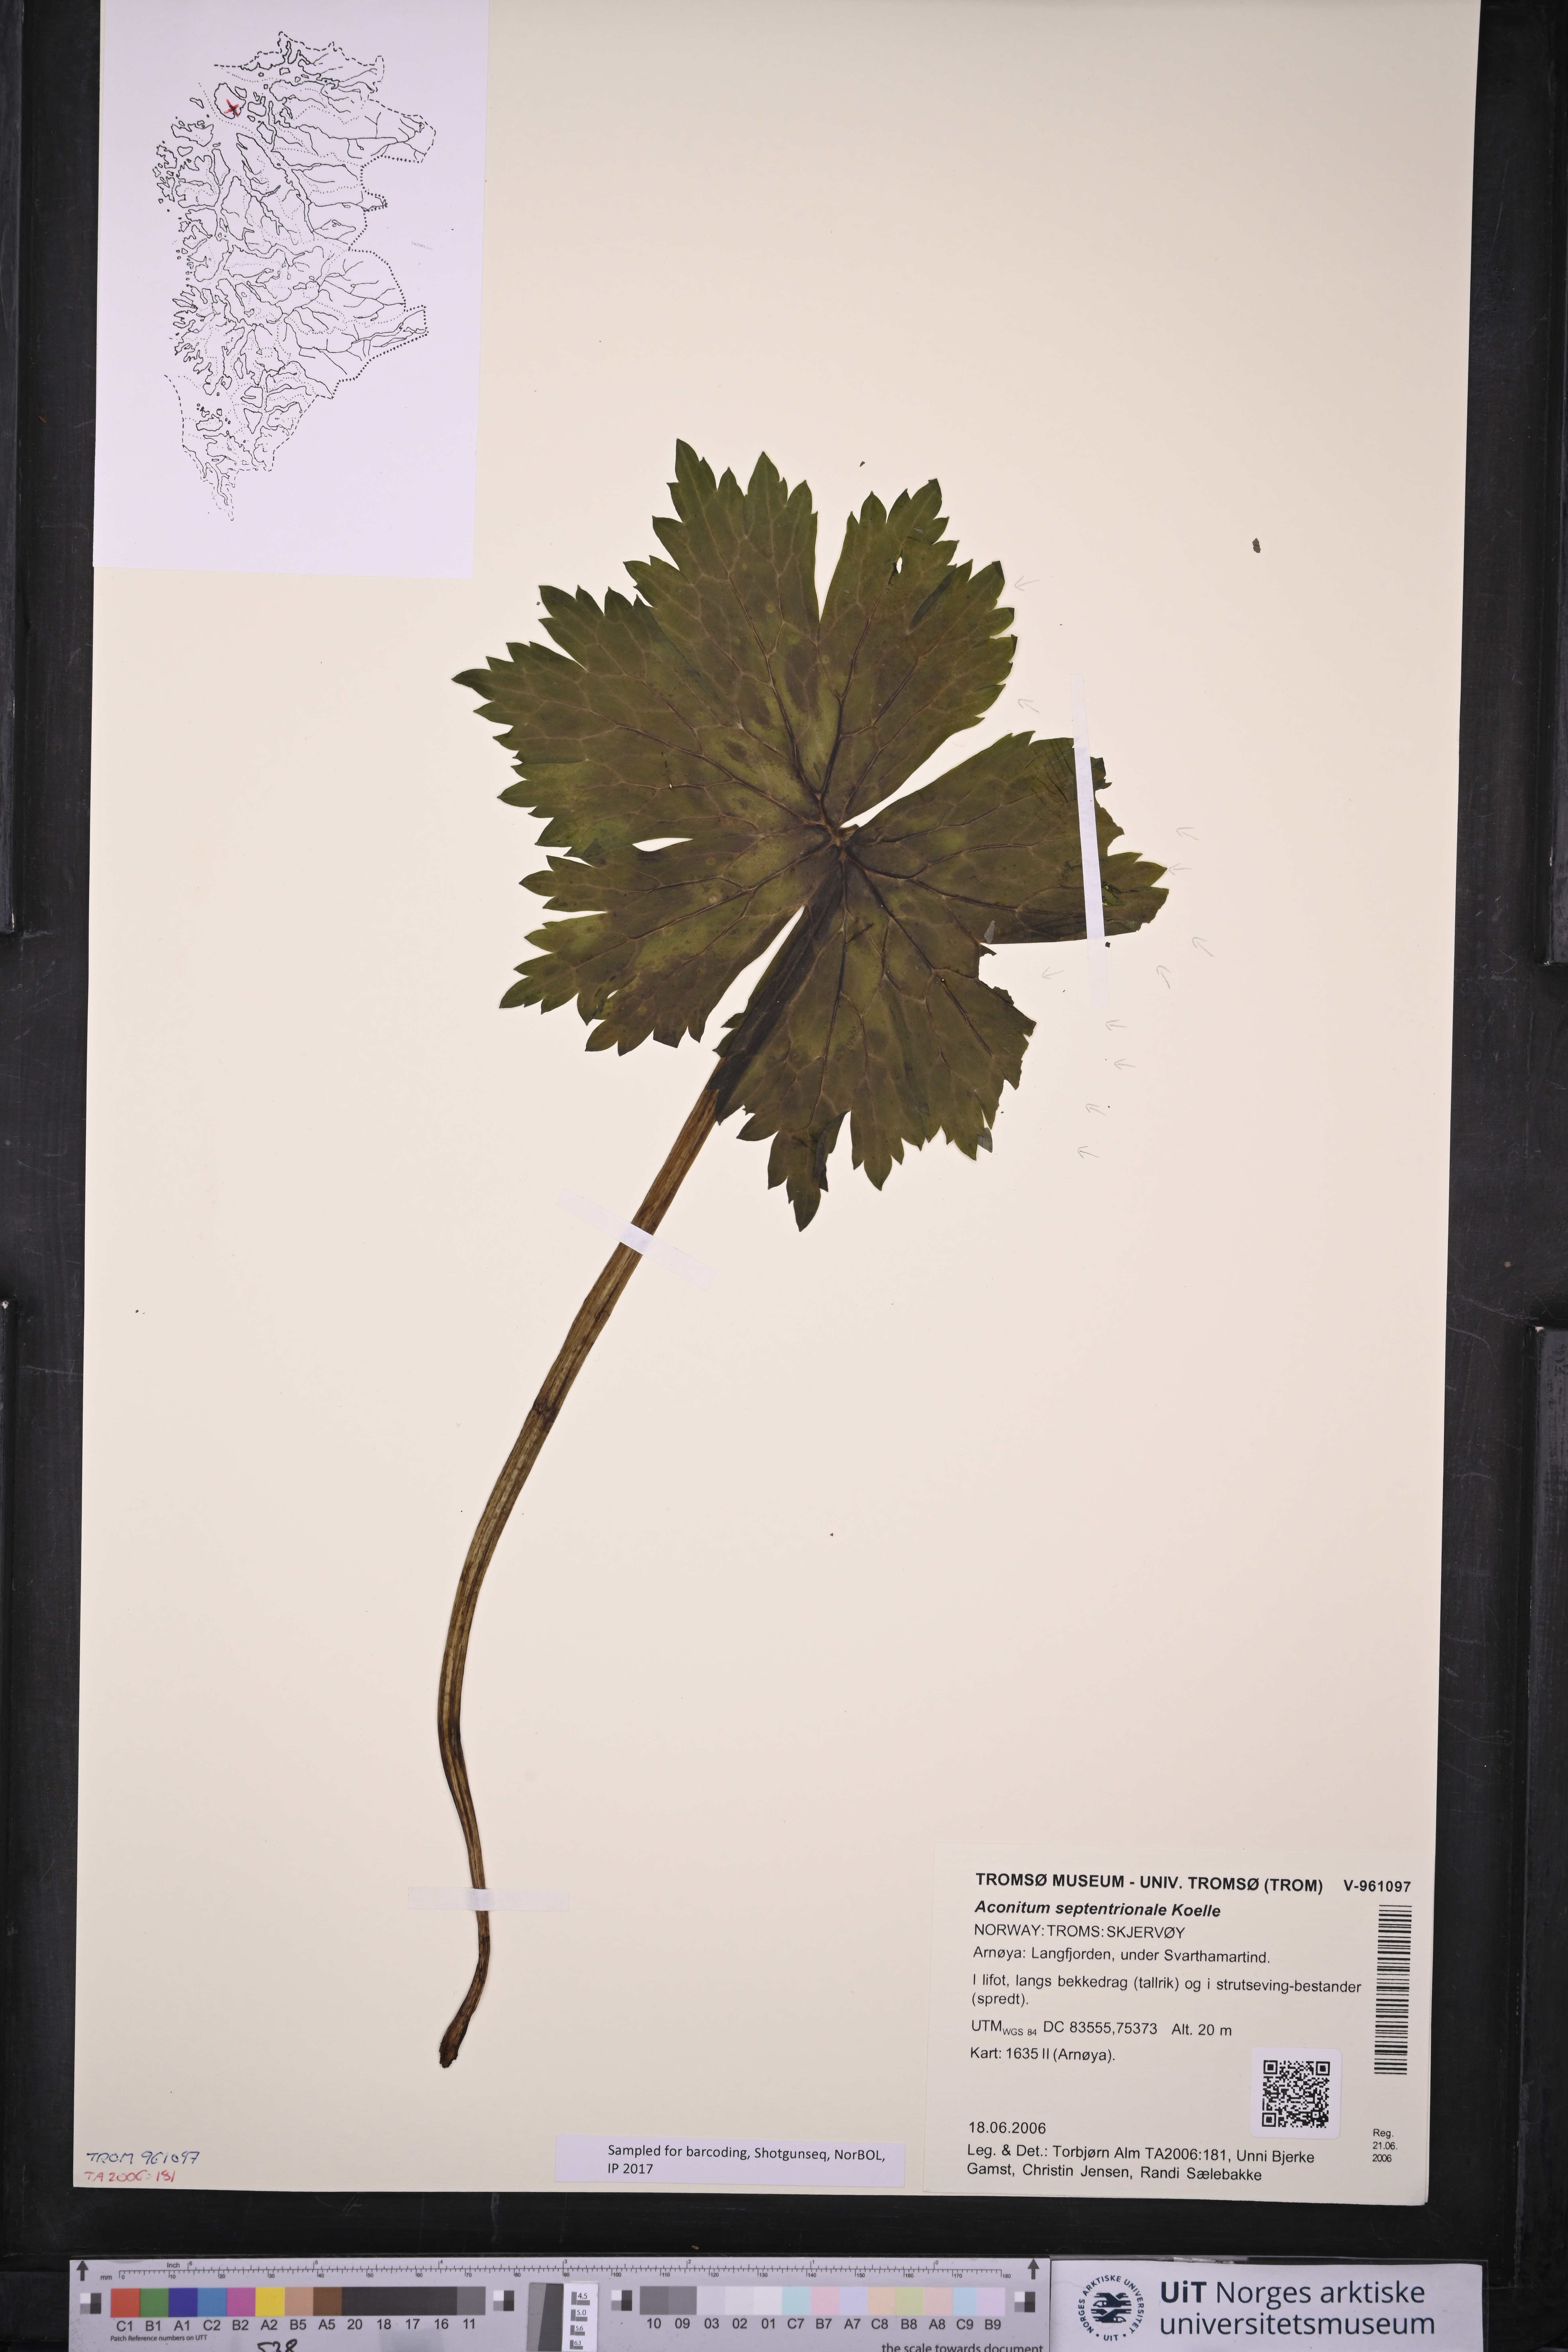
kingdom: Plantae
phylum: Tracheophyta
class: Magnoliopsida
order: Ranunculales
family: Ranunculaceae
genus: Aconitum
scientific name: Aconitum septentrionale
